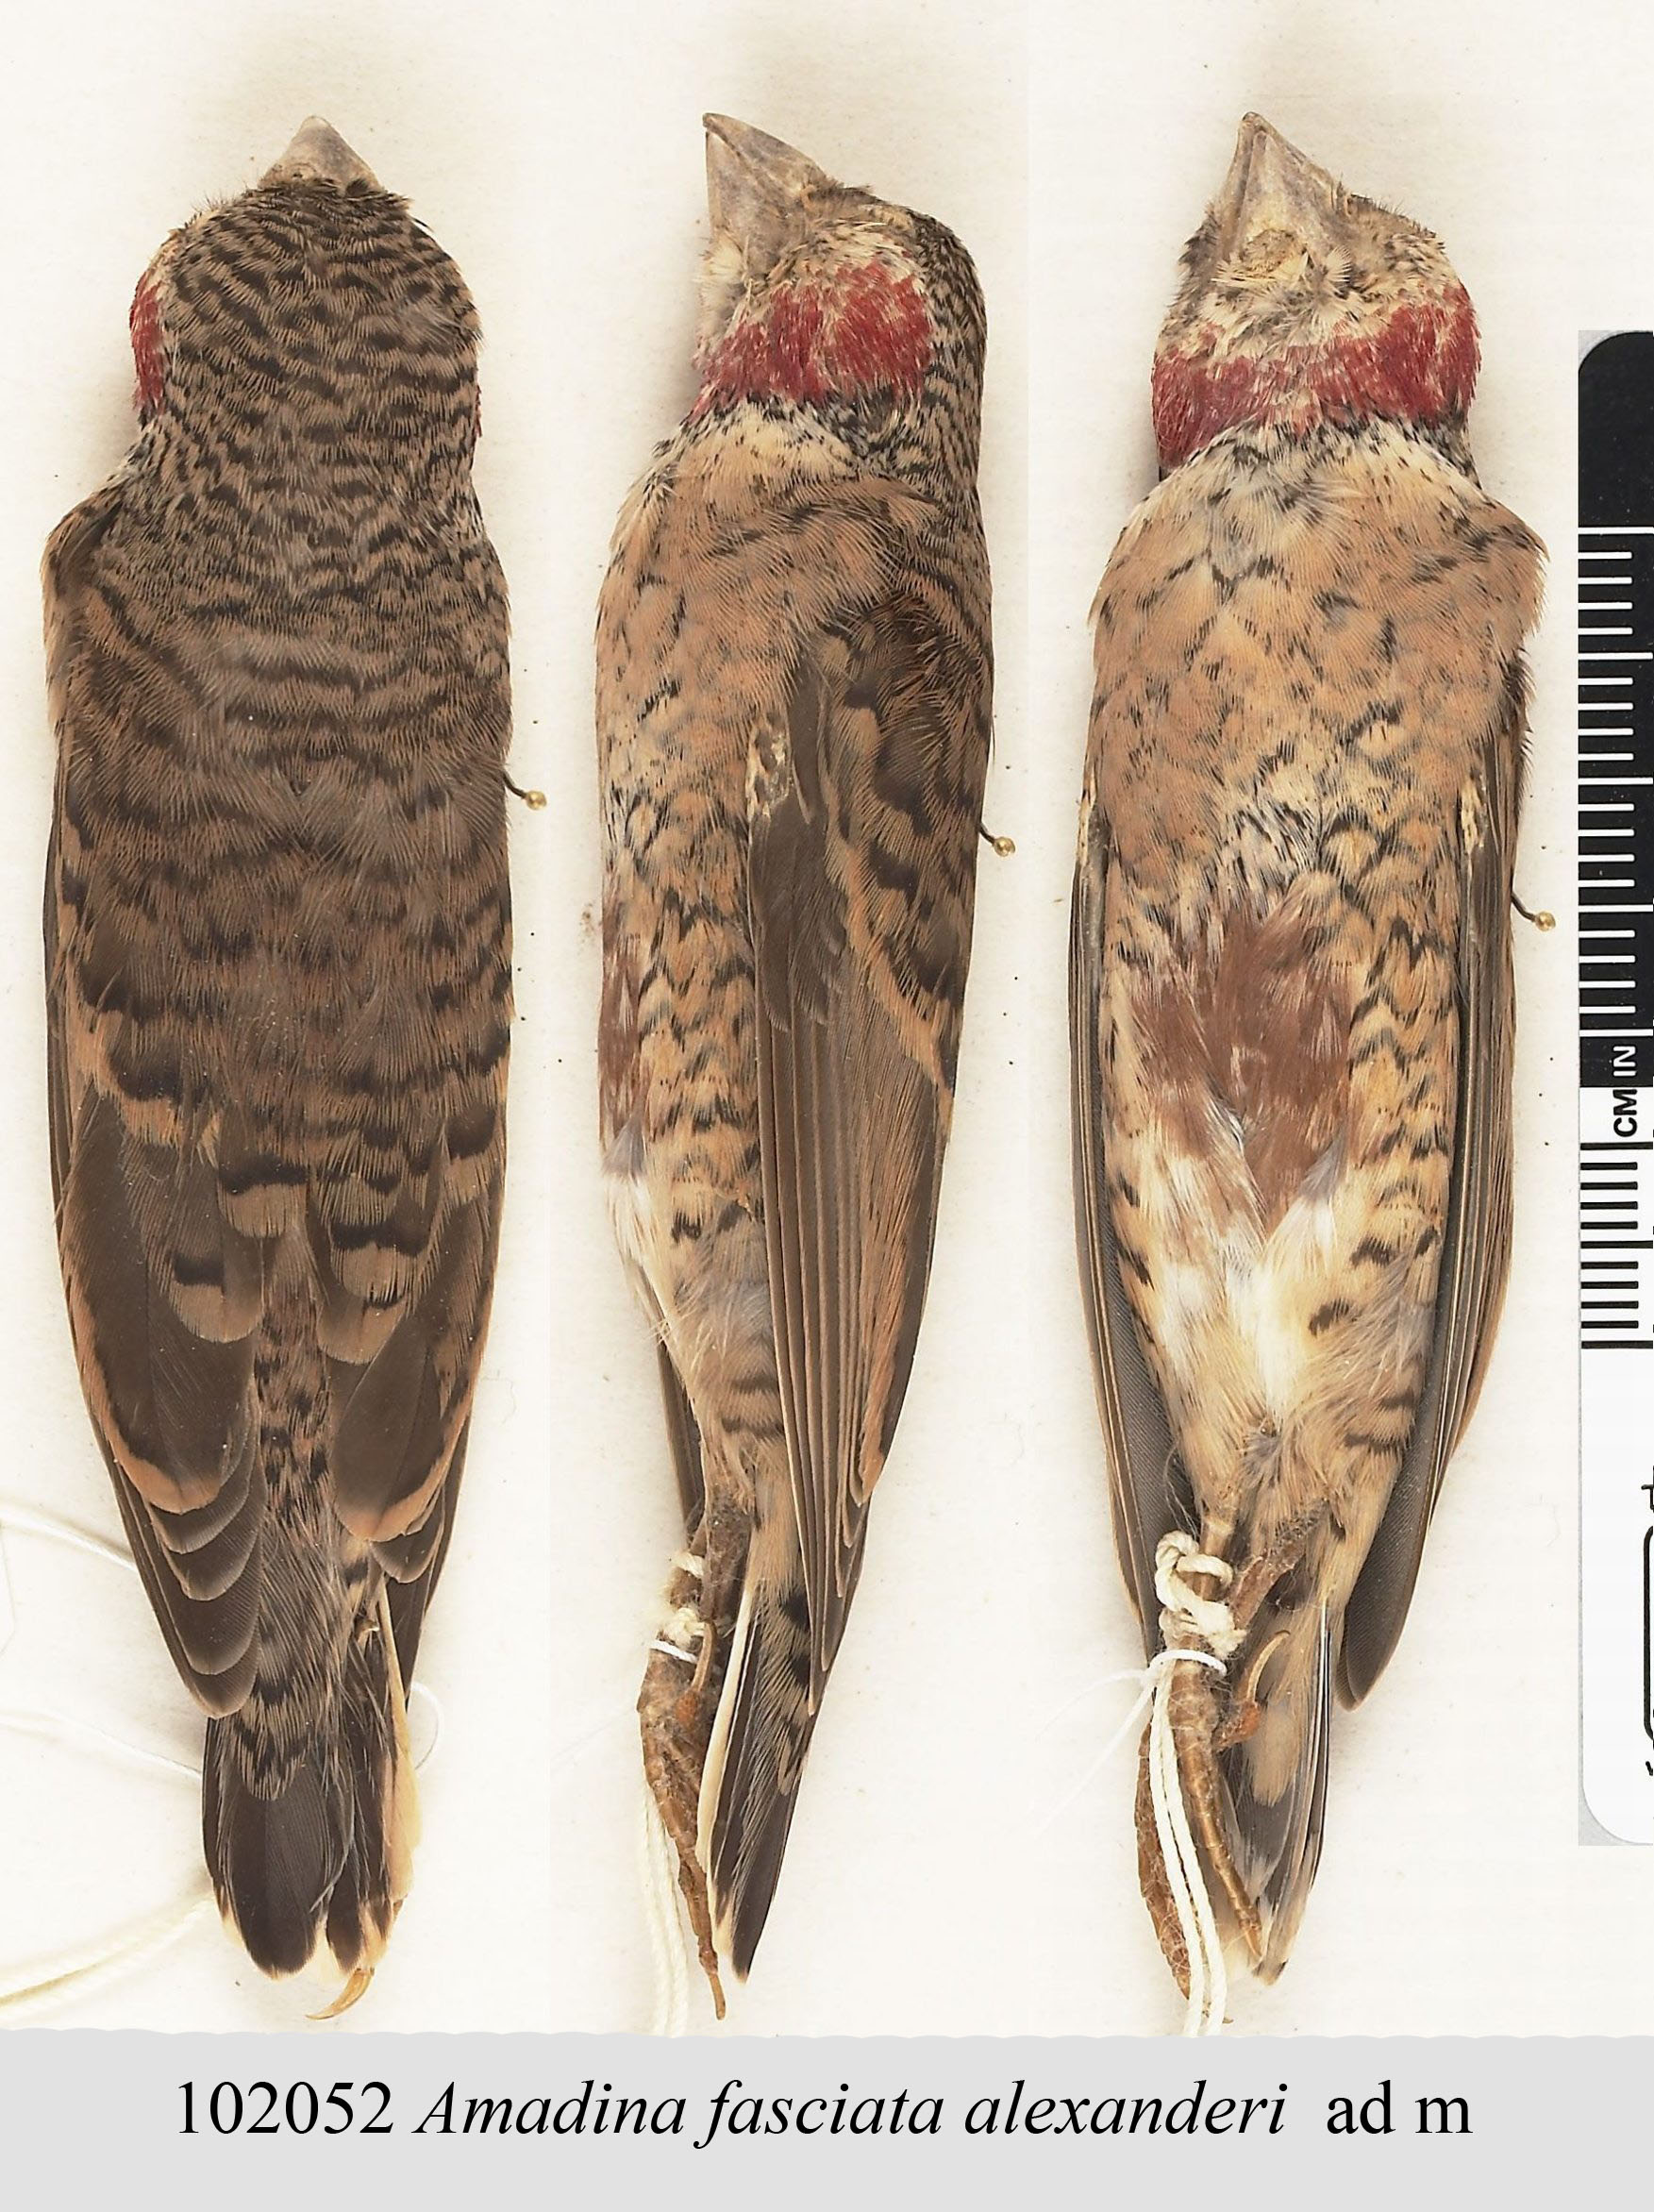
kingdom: Animalia
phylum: Chordata
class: Aves
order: Passeriformes
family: Estrildidae
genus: Amadina
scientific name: Amadina fasciata
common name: Cut-throat finch
